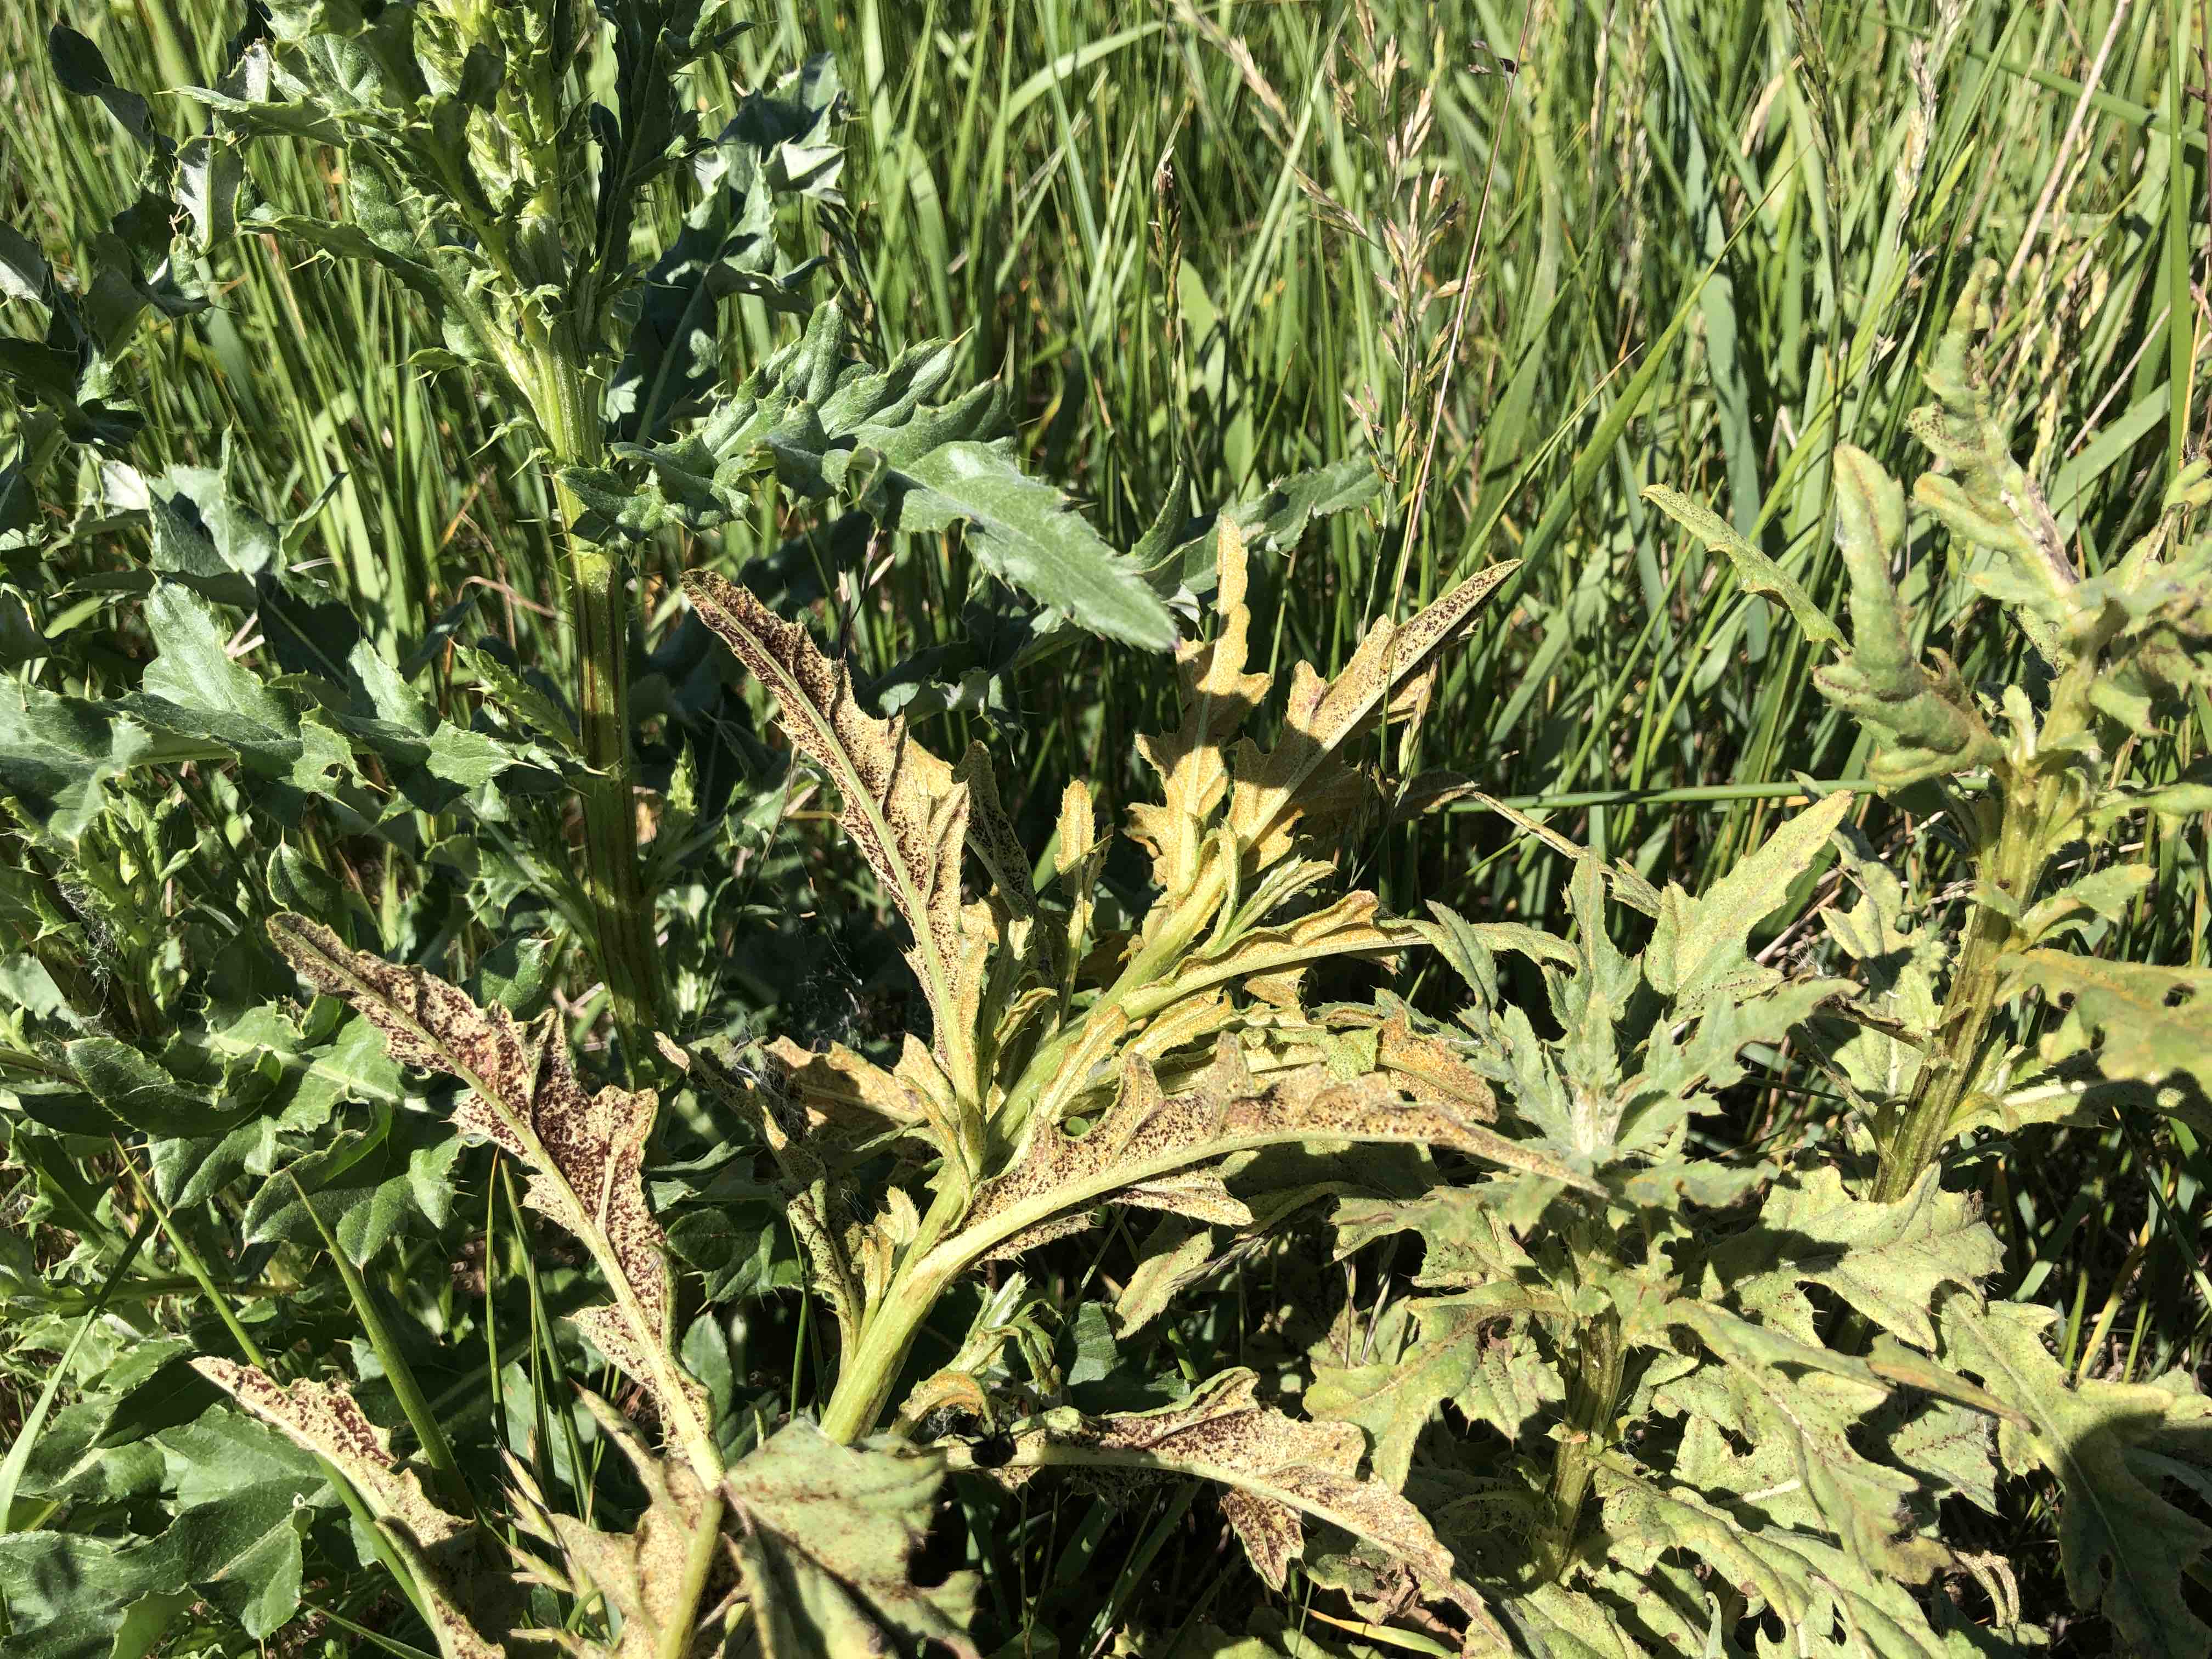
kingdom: Fungi
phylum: Basidiomycota
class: Pucciniomycetes
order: Pucciniales
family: Pucciniaceae
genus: Puccinia
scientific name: Puccinia suaveolens
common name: tidsel-tvecellerust
